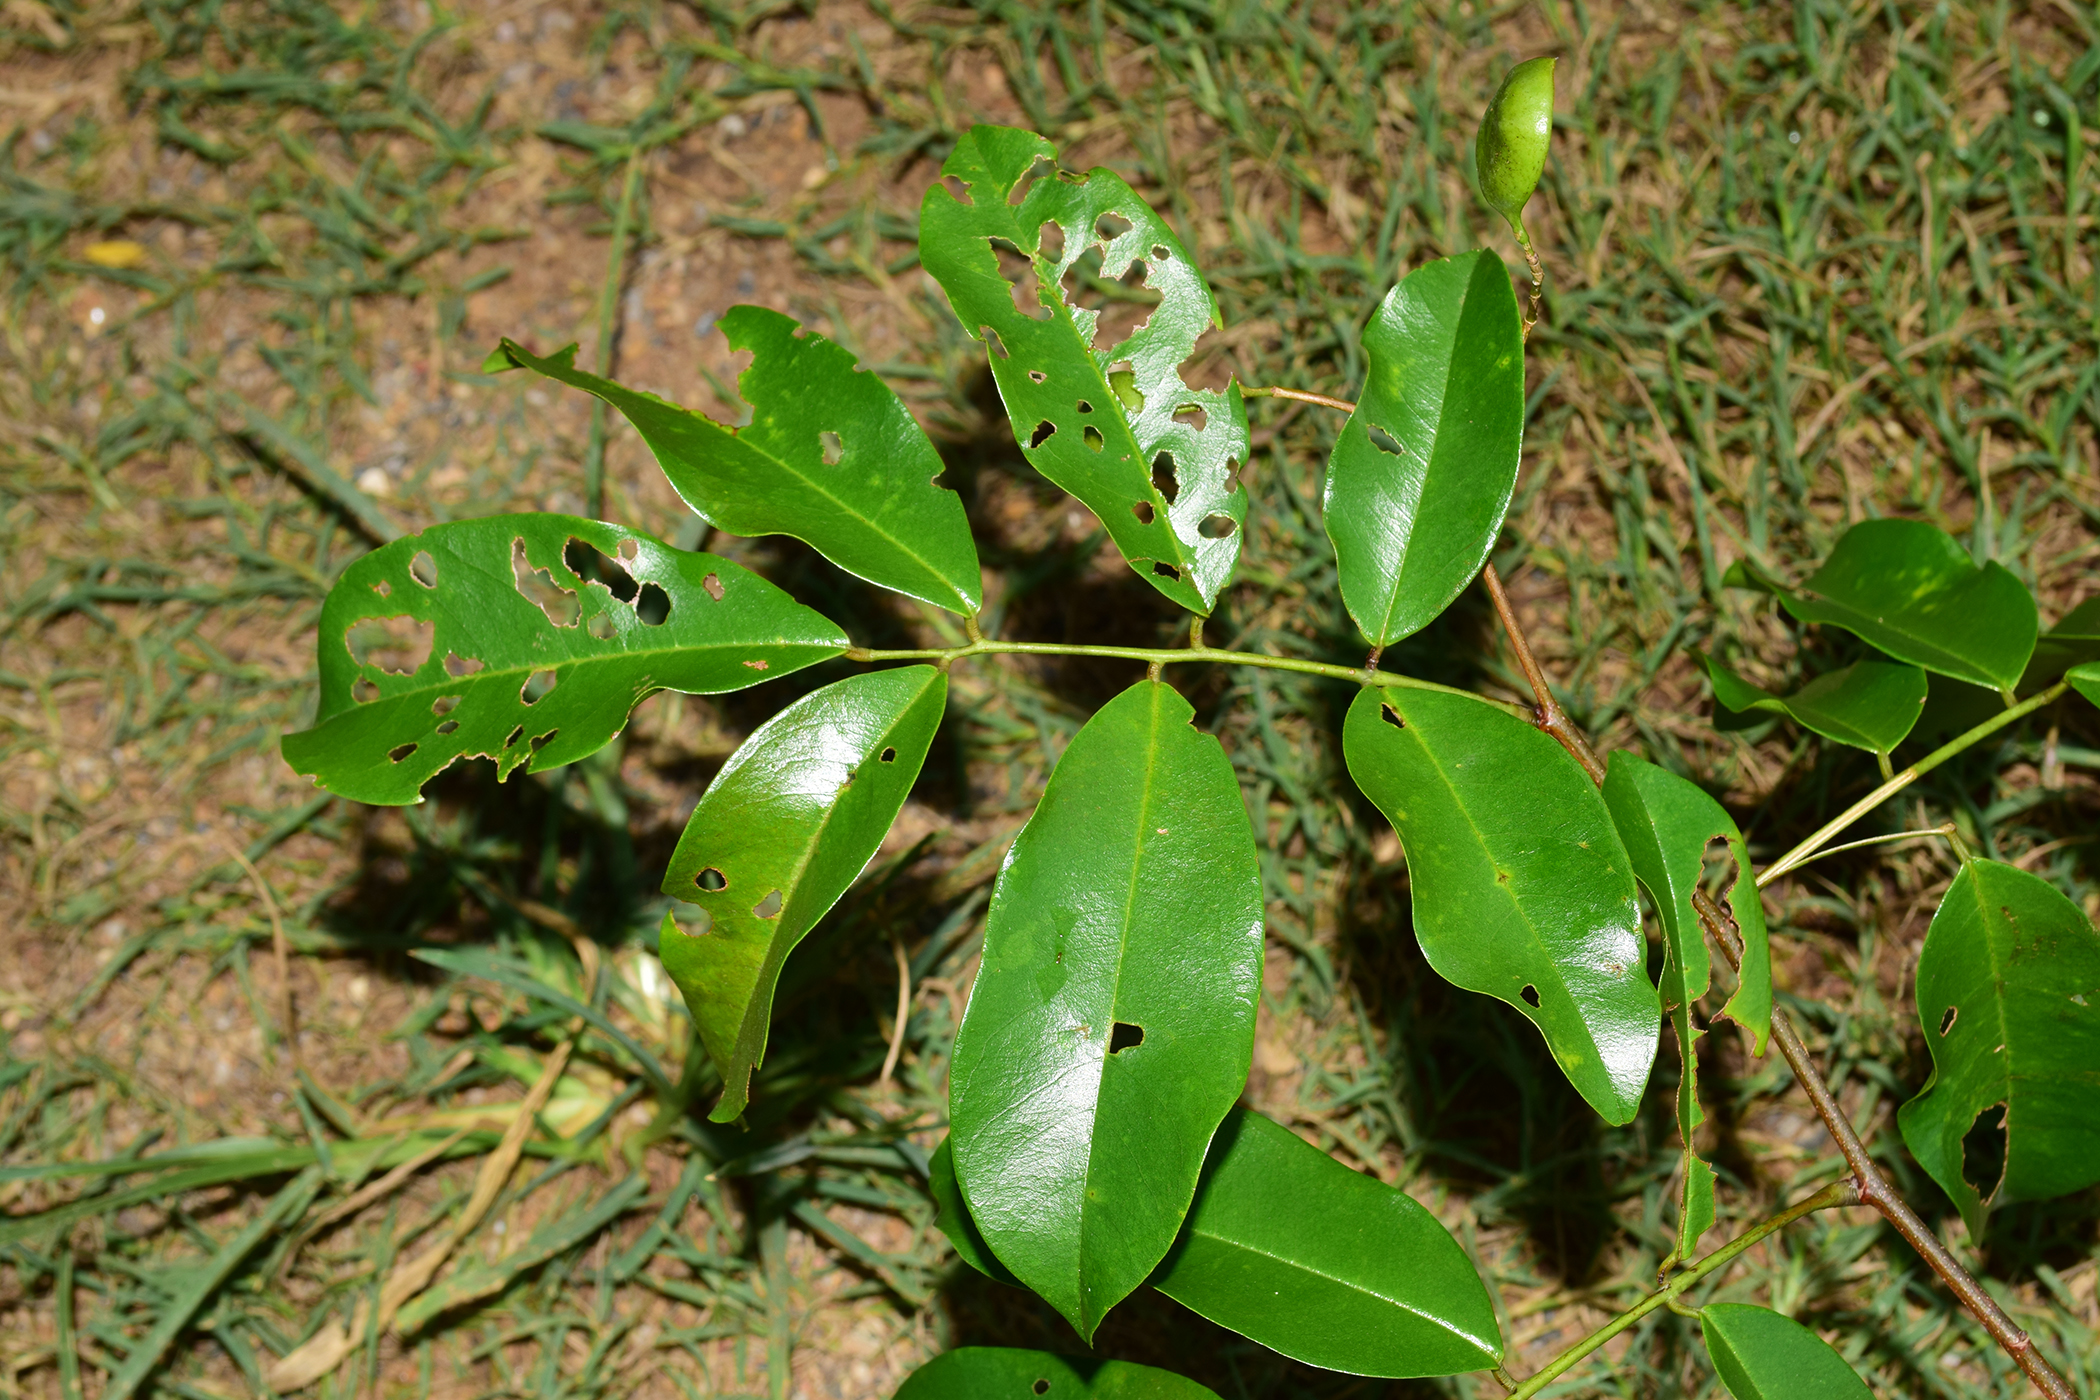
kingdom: Plantae
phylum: Tracheophyta
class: Magnoliopsida
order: Fabales
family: Fabaceae
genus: Dalbergia
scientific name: Dalbergia parviflora
